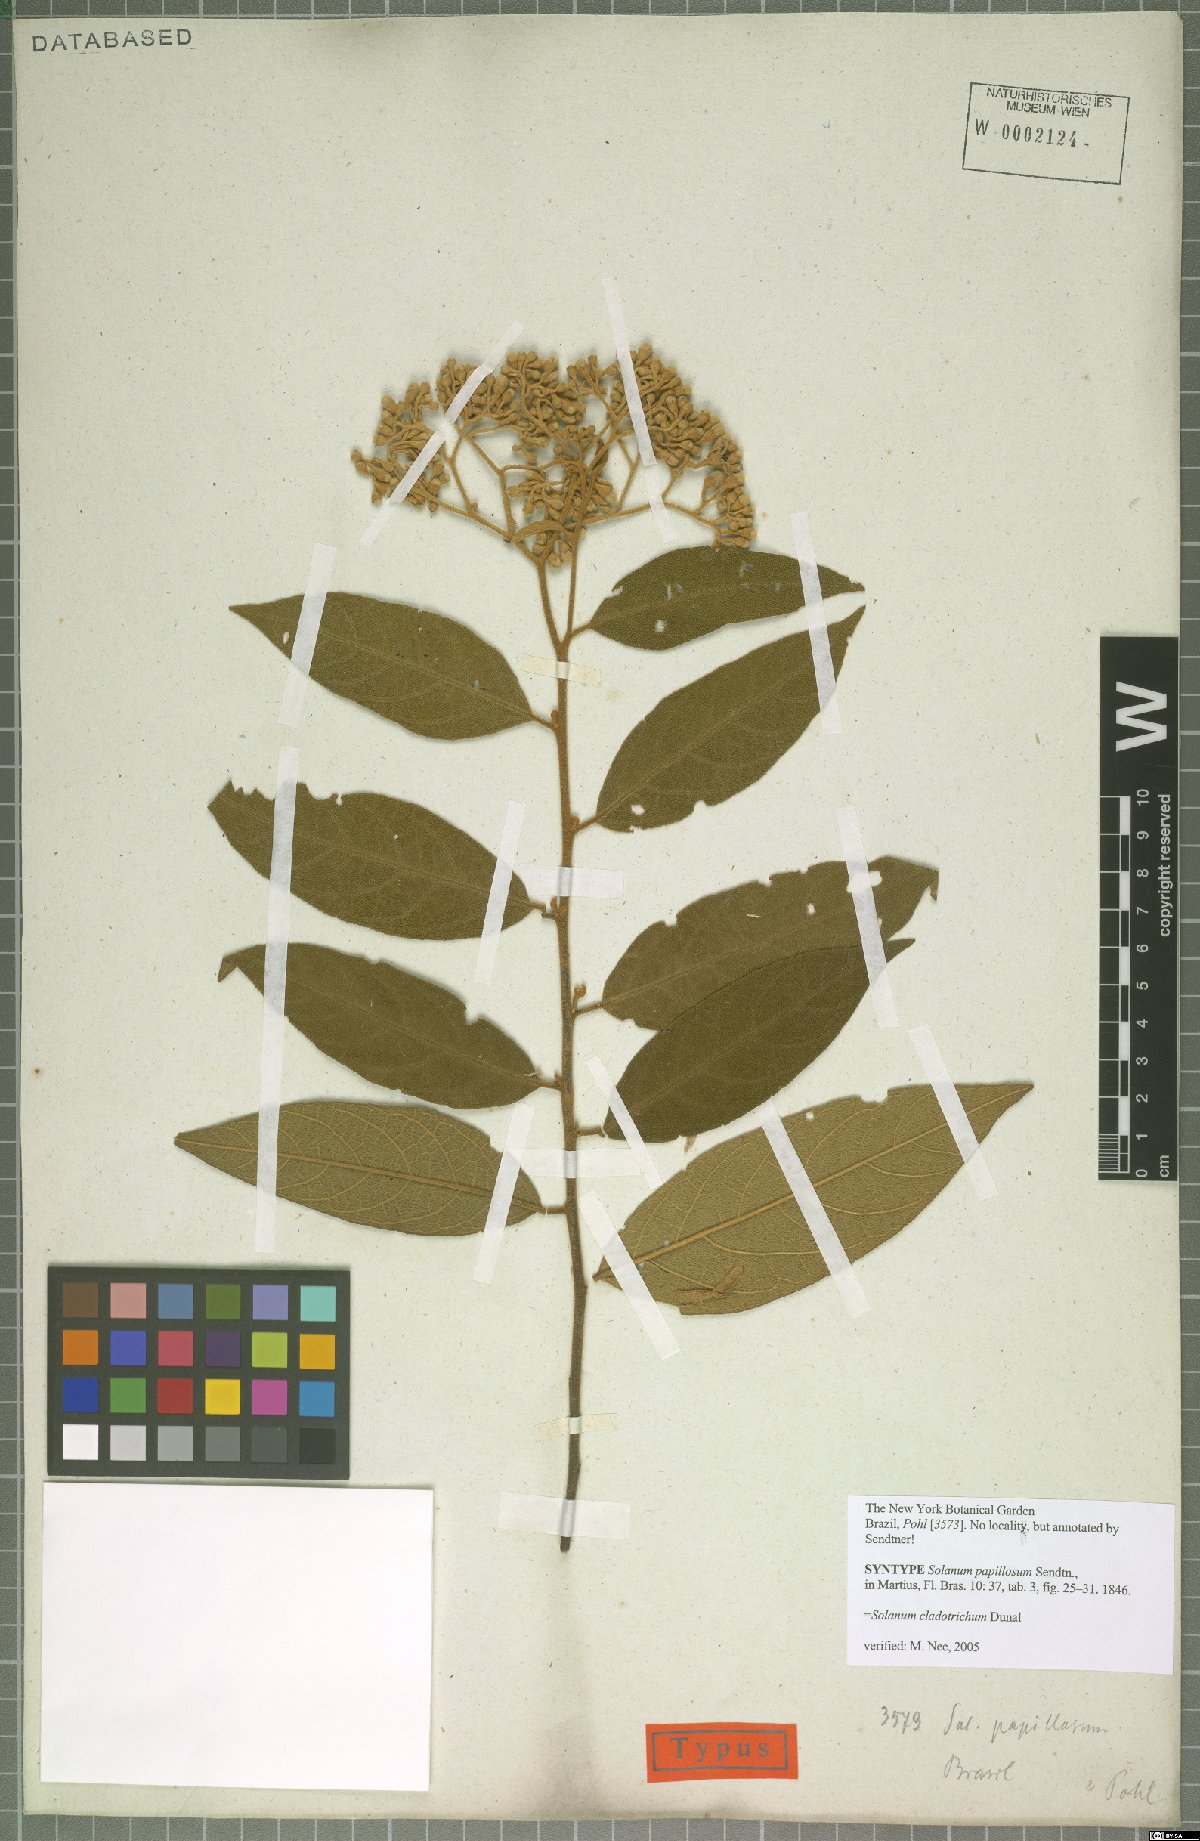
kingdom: Plantae
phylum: Tracheophyta
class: Magnoliopsida
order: Solanales
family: Solanaceae
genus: Solanum
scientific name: Solanum jussiaei
